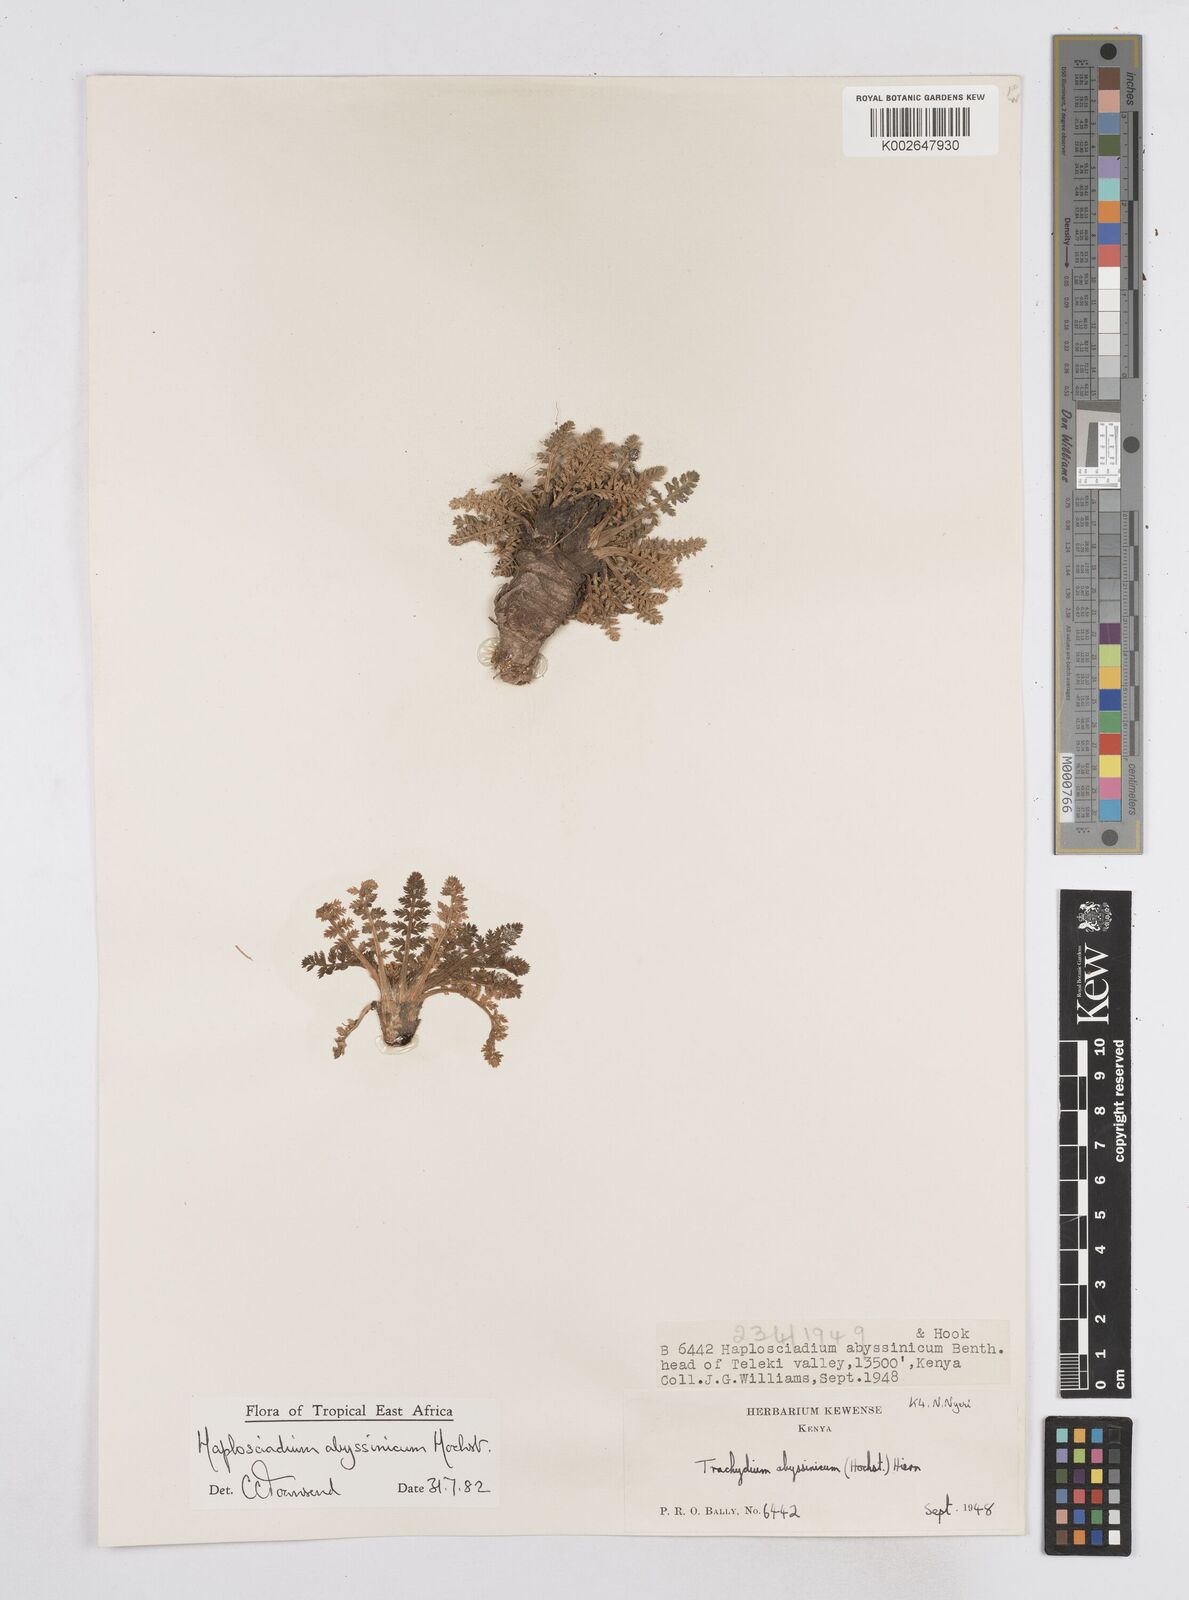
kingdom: Plantae
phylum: Tracheophyta
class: Magnoliopsida
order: Apiales
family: Apiaceae
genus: Haplosciadium
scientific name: Haplosciadium abyssinicum
